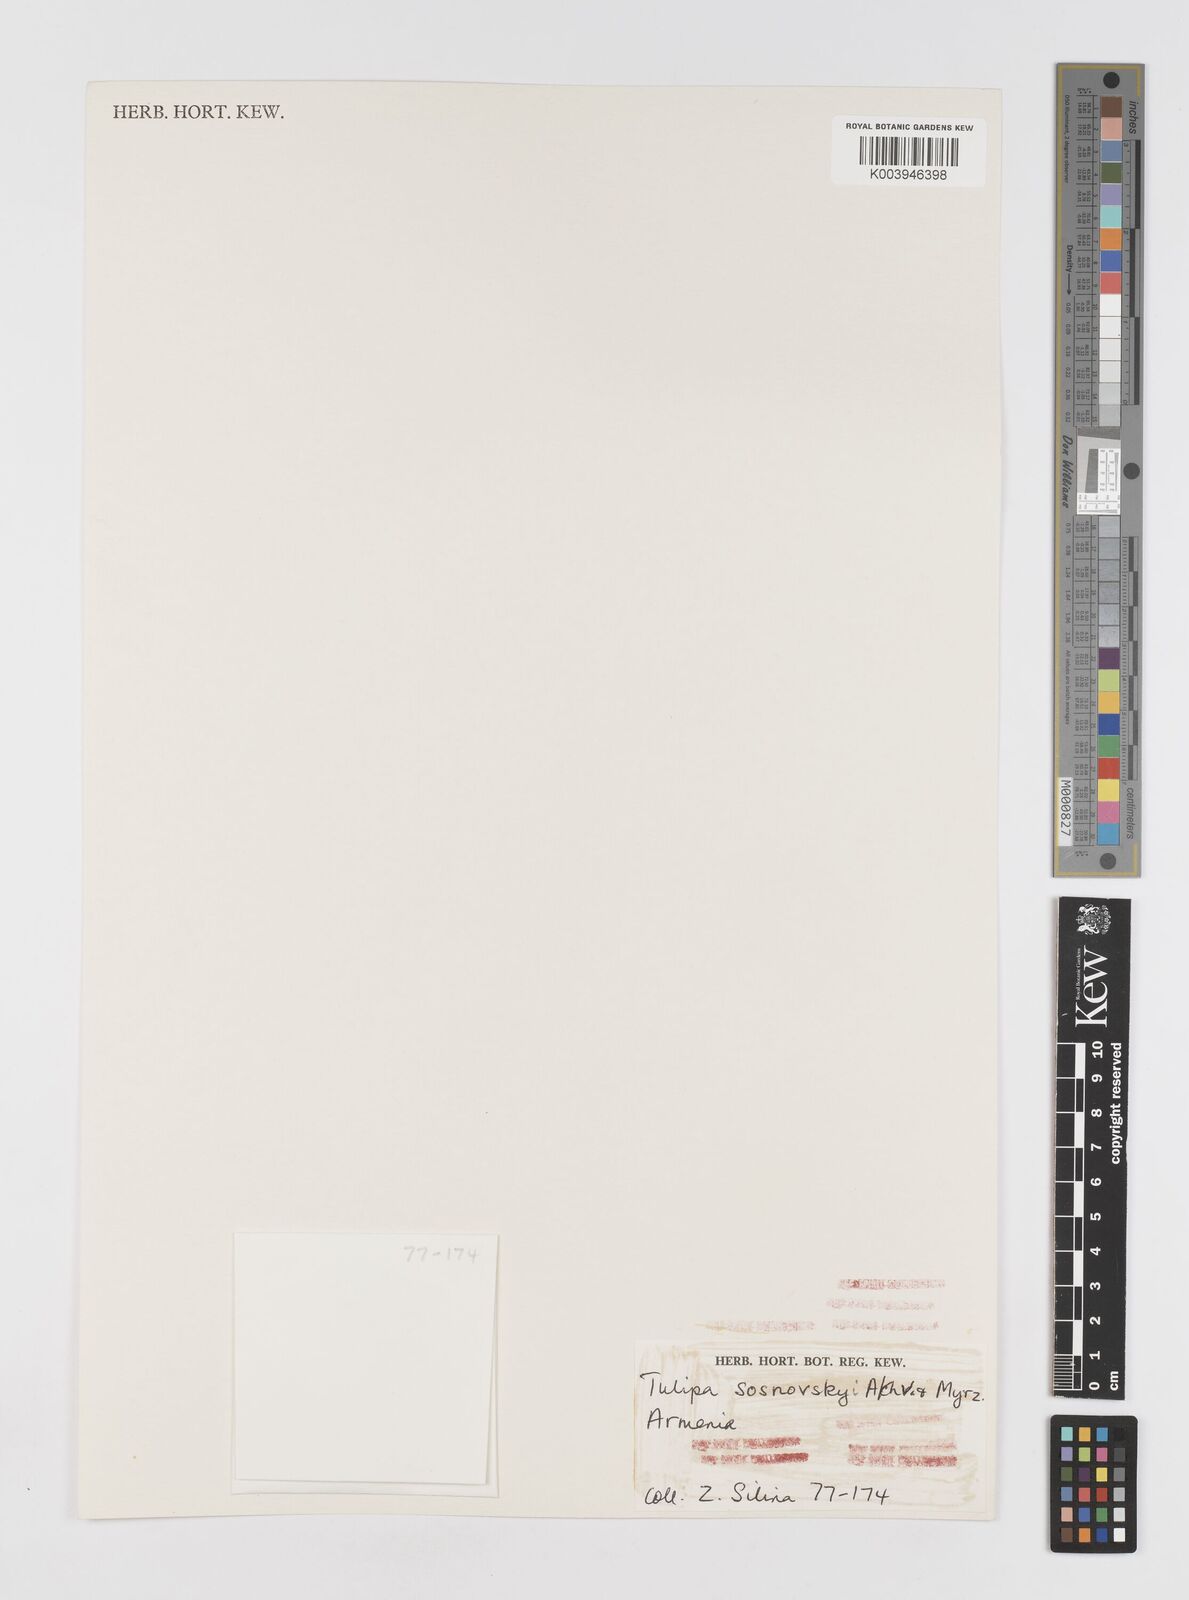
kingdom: Plantae
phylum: Tracheophyta
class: Liliopsida
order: Liliales
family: Liliaceae
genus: Tulipa
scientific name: Tulipa sosnowskyi
